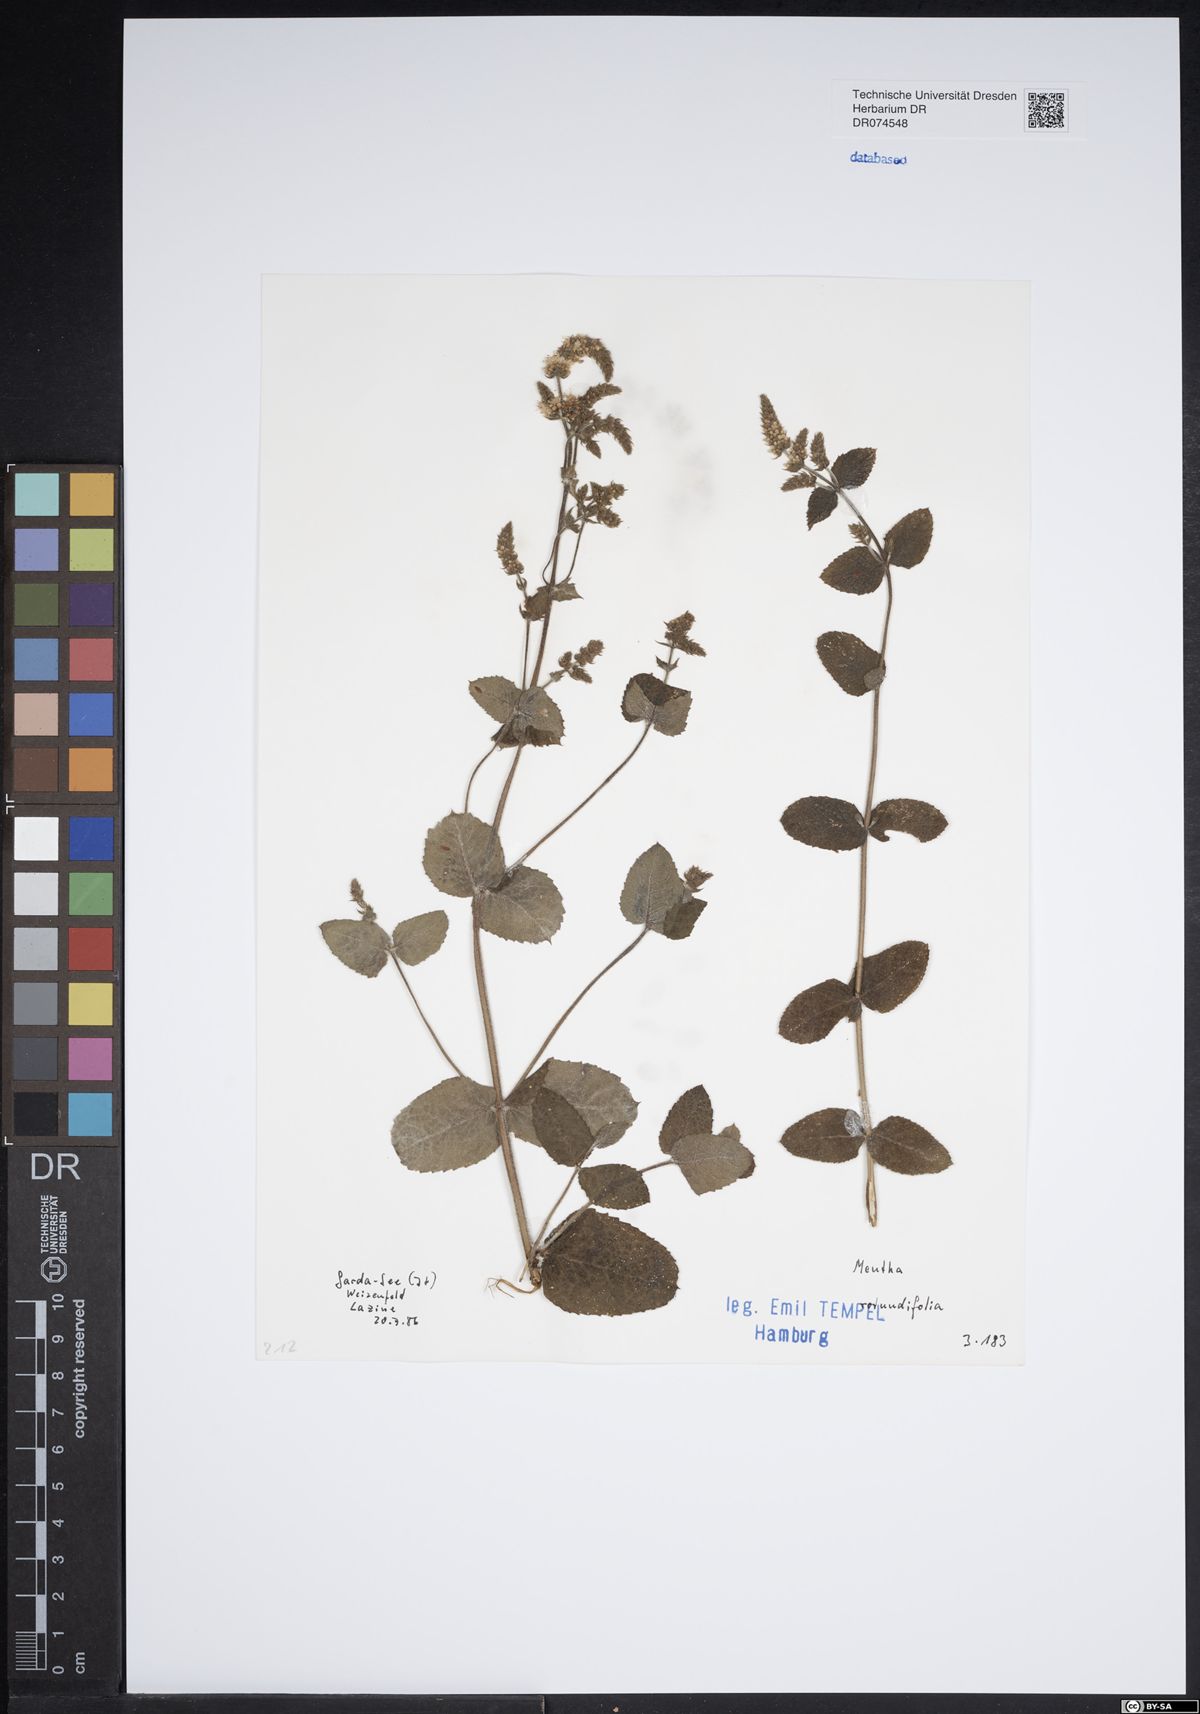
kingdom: Plantae
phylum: Tracheophyta
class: Magnoliopsida
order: Lamiales
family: Lamiaceae
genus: Mentha
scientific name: Mentha rotundifolia
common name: Bigleaf mint
